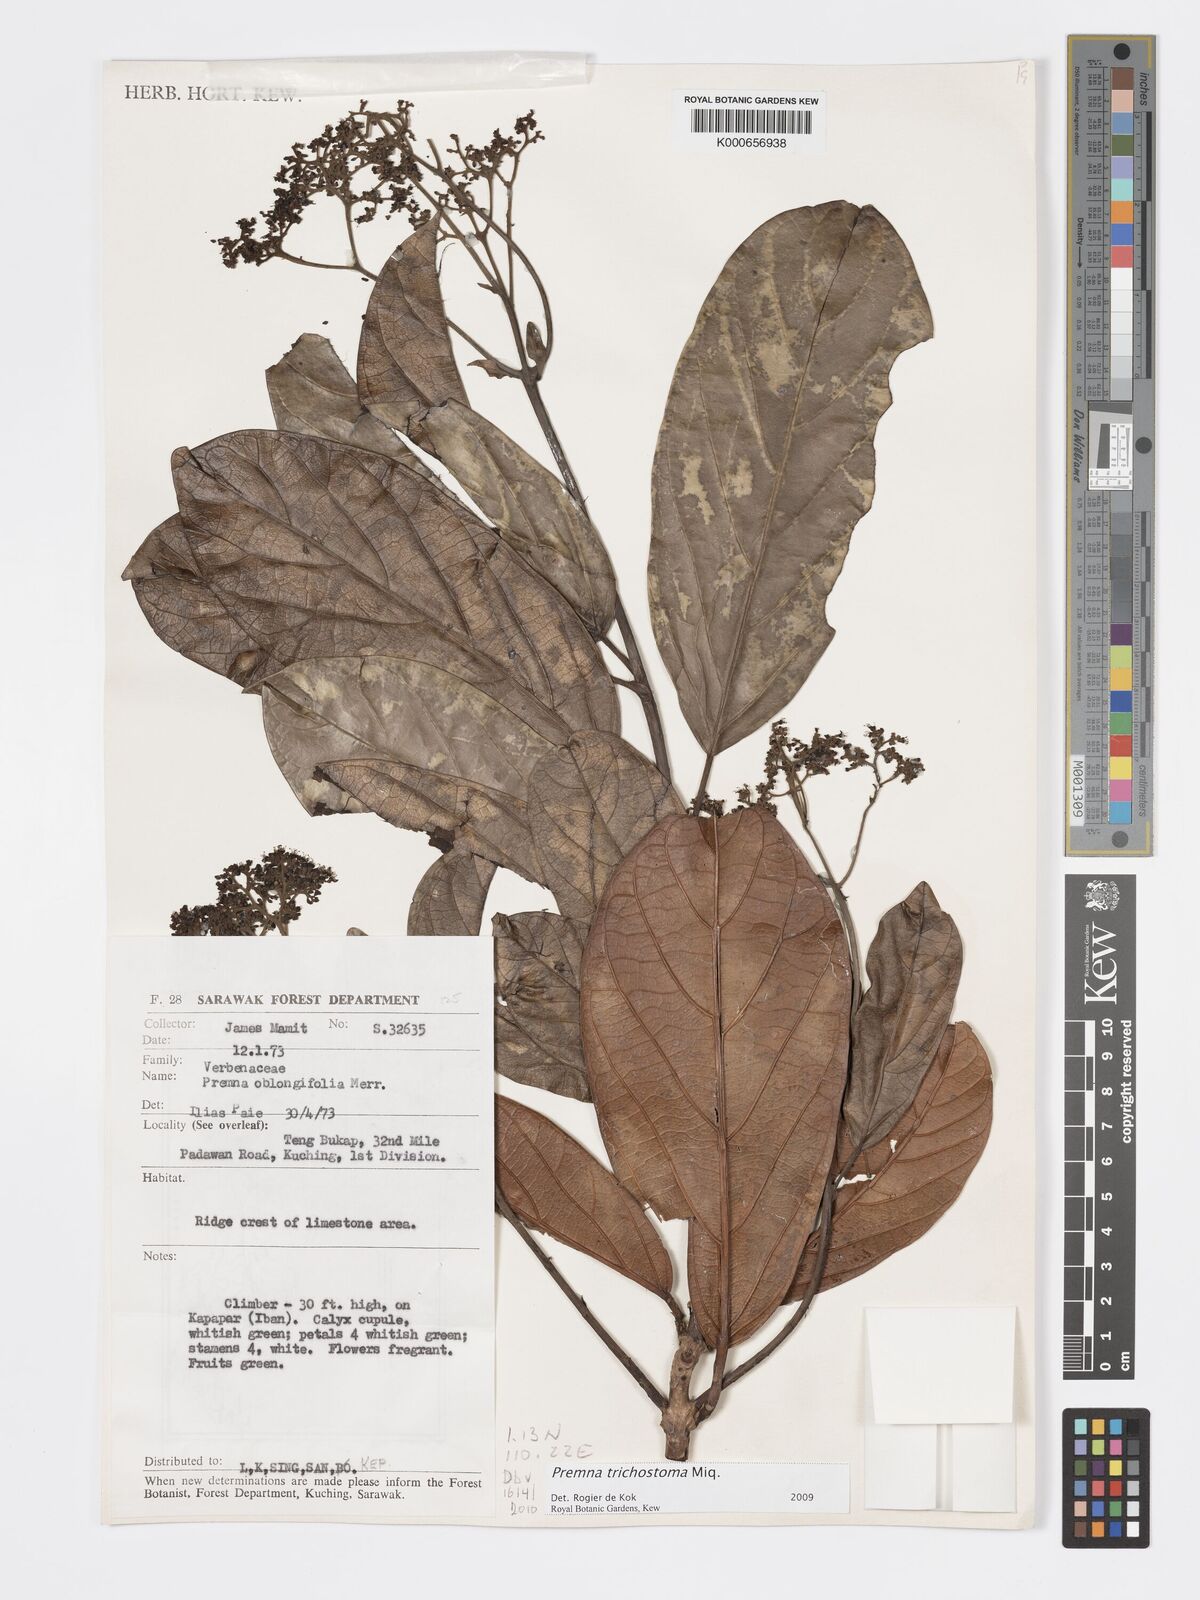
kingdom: Plantae
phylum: Tracheophyta
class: Magnoliopsida
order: Lamiales
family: Lamiaceae
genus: Premna
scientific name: Premna trichostoma
